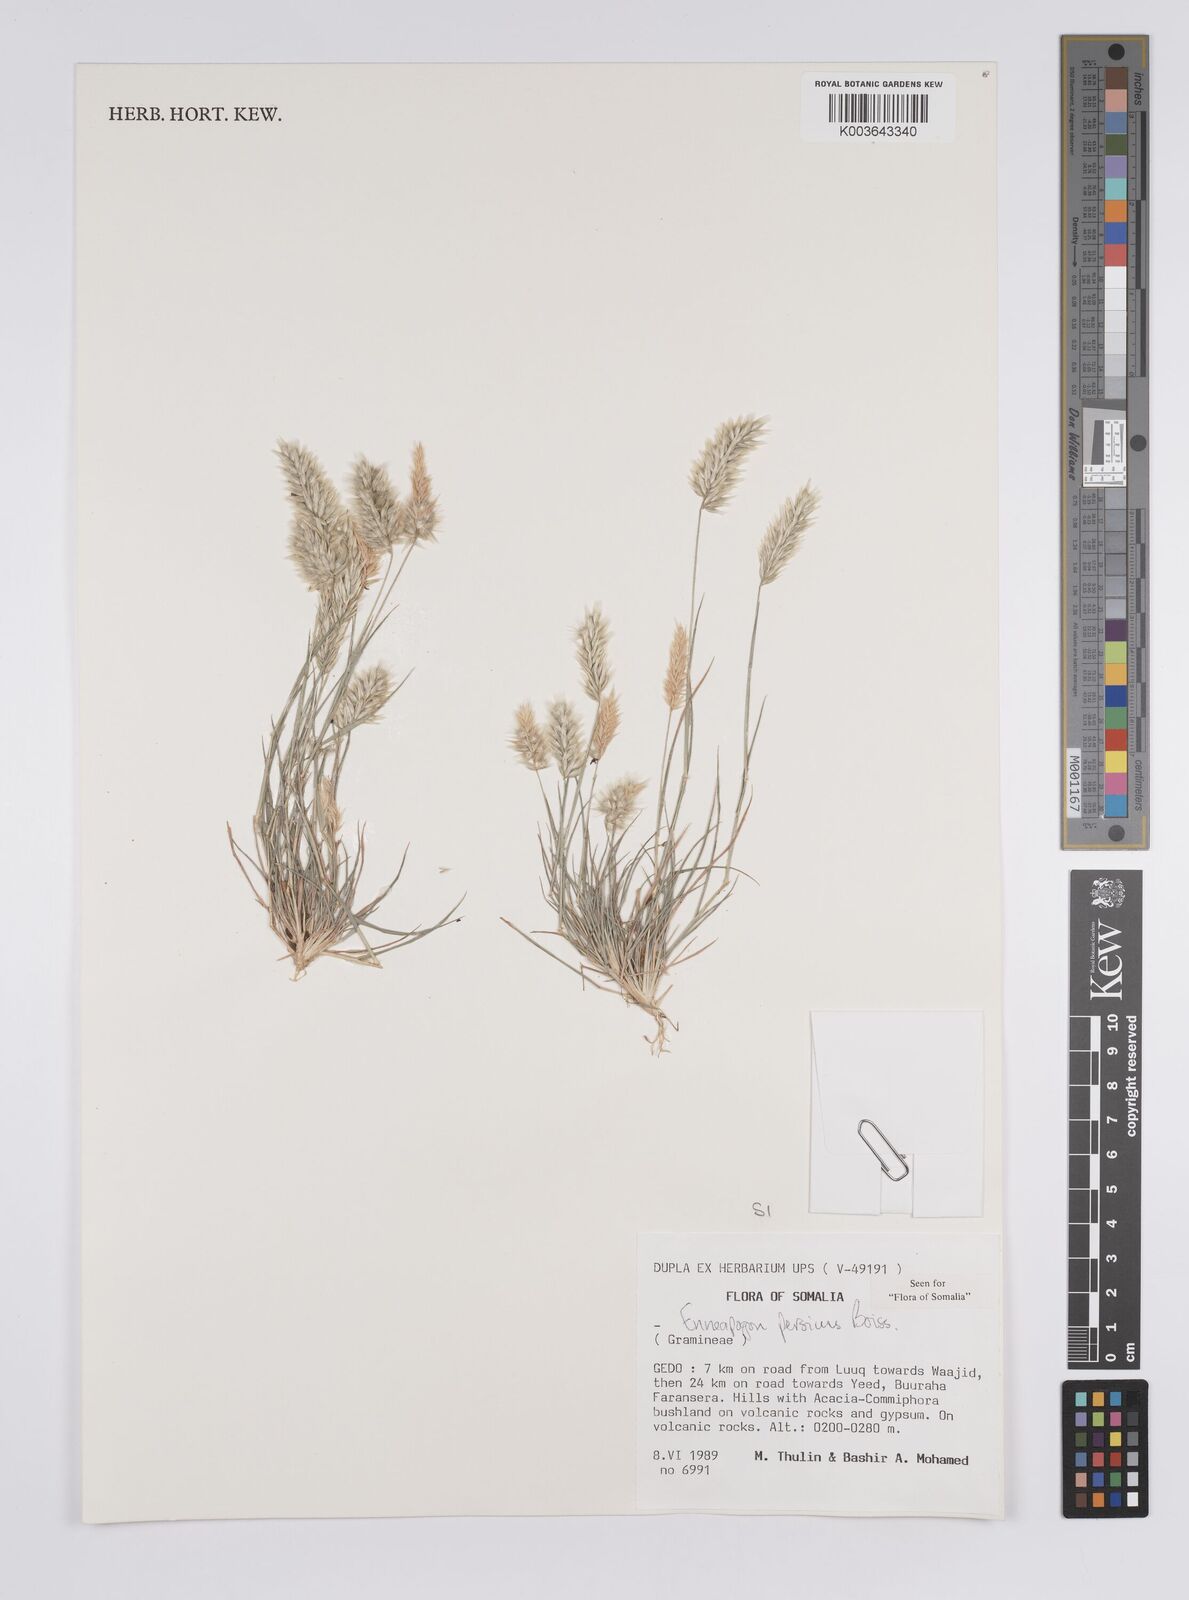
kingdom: Plantae
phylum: Tracheophyta
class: Liliopsida
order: Poales
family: Poaceae
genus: Enneapogon
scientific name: Enneapogon persicus
